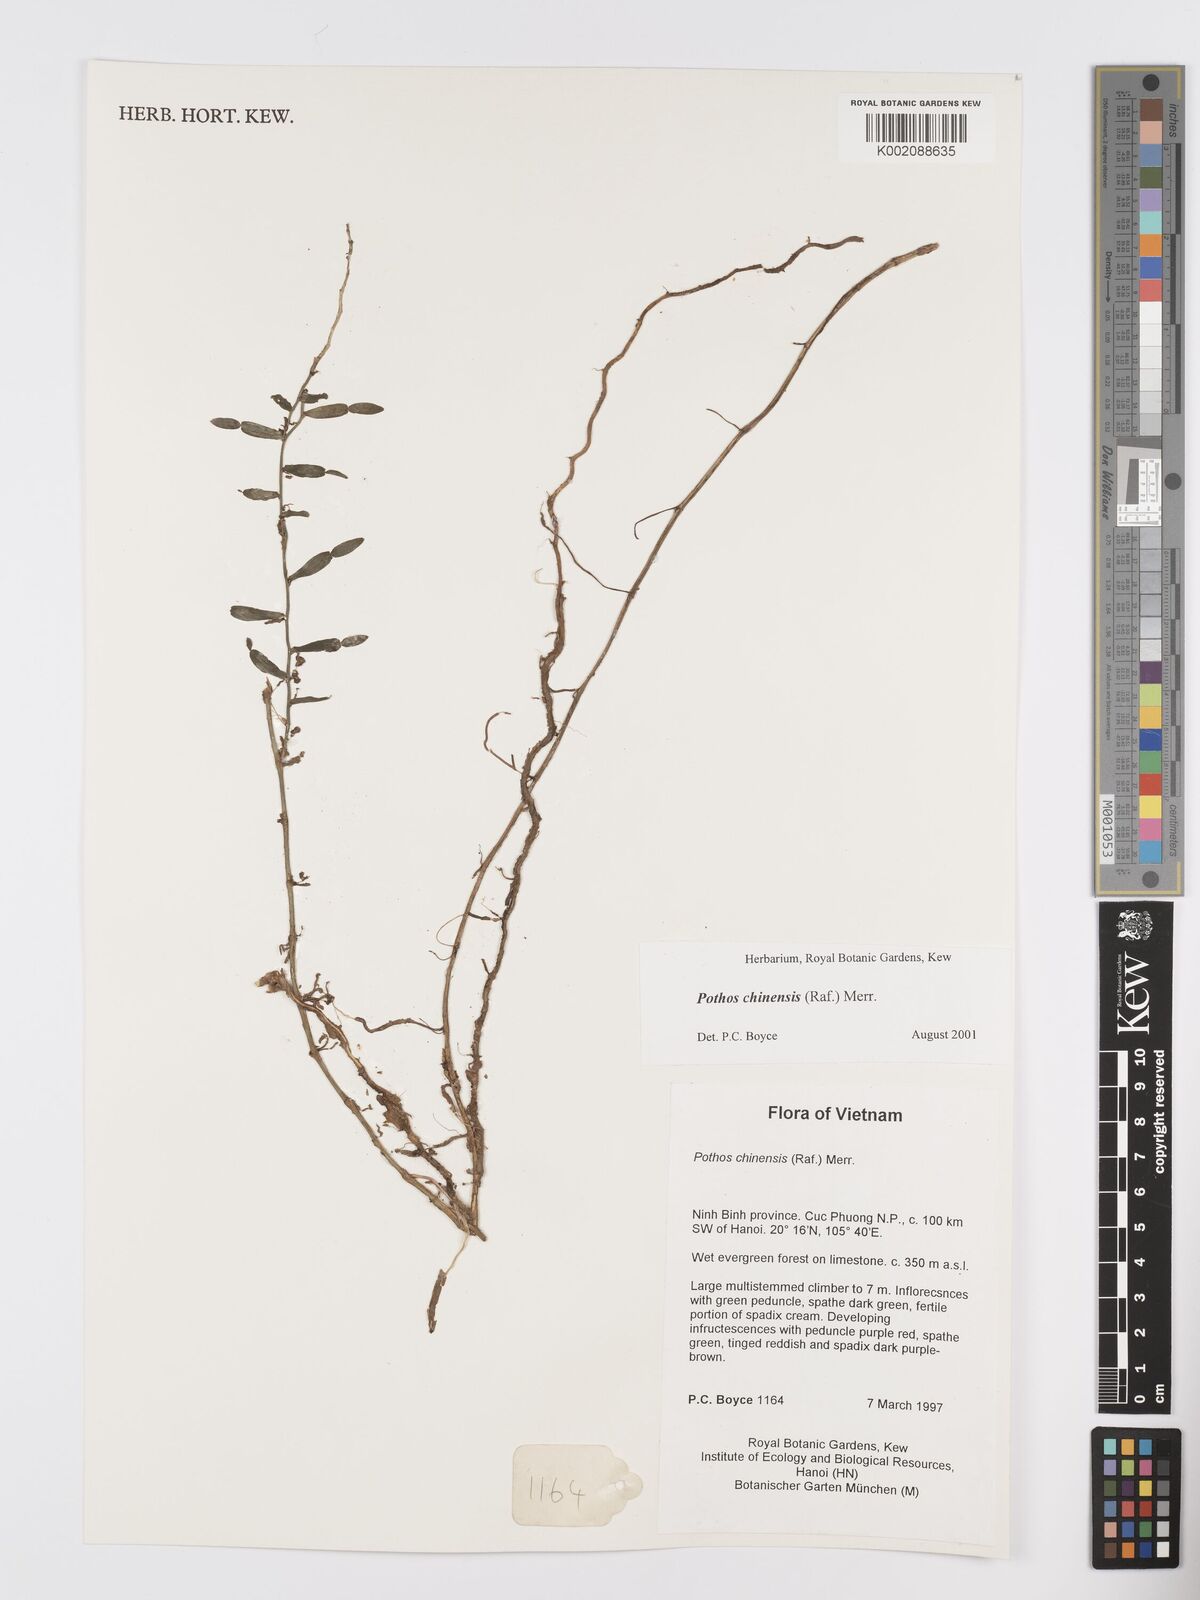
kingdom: Plantae
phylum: Tracheophyta
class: Liliopsida
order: Alismatales
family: Araceae
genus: Pothos
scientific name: Pothos chinensis
